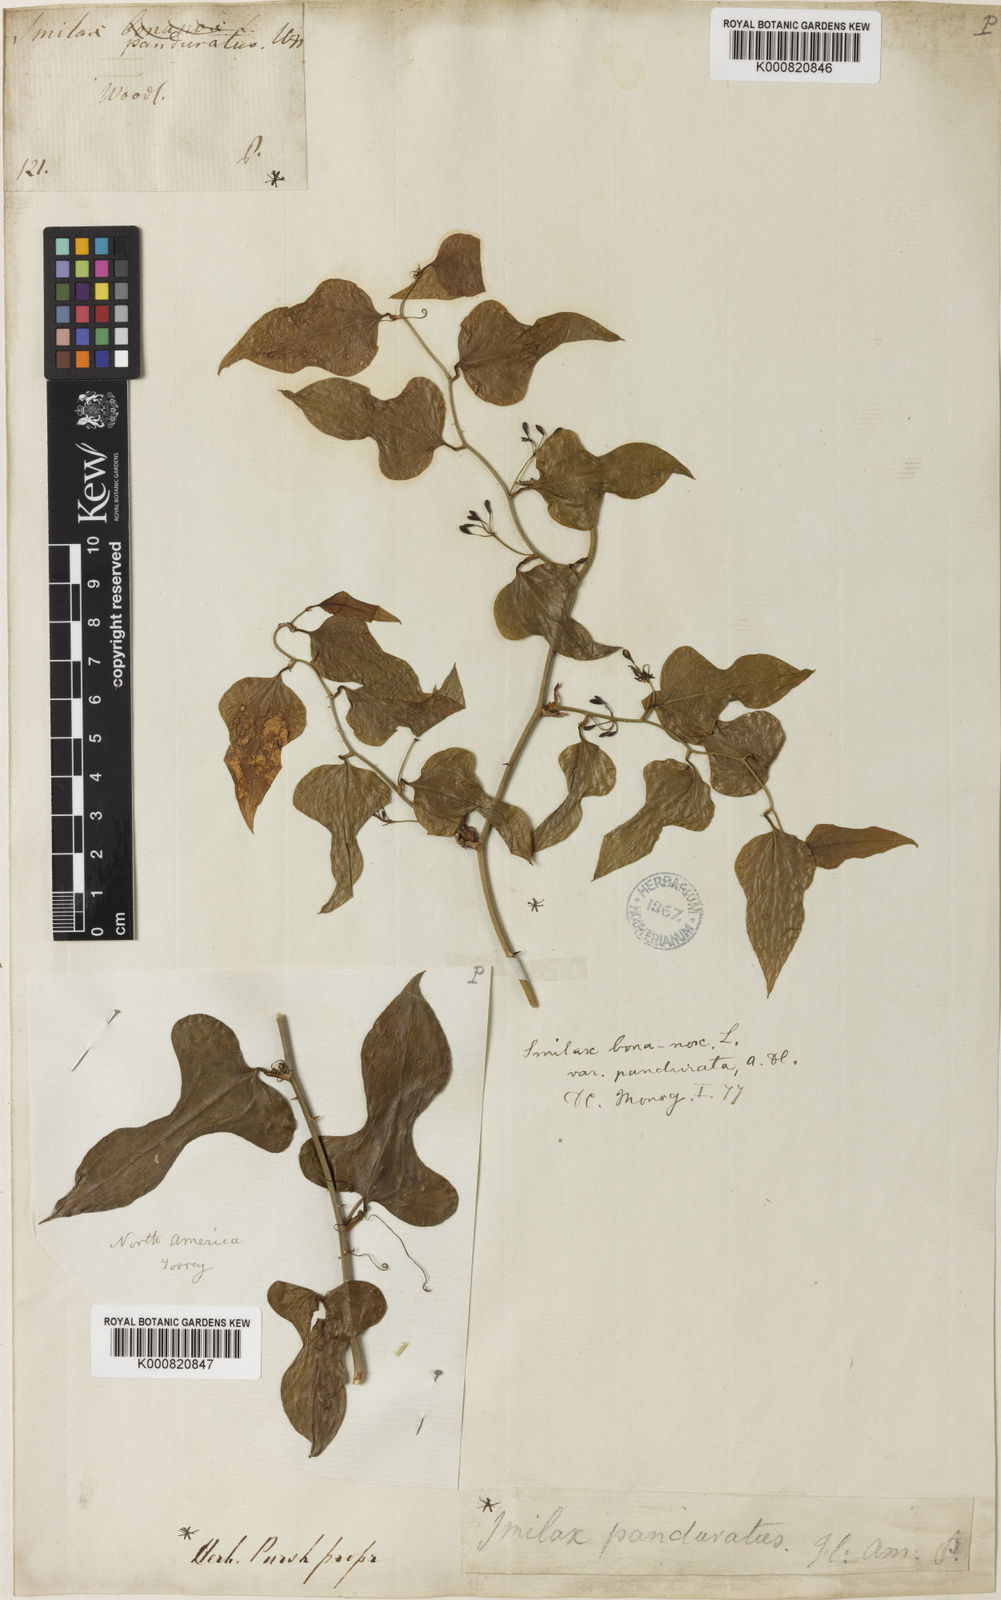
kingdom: Plantae
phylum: Tracheophyta
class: Liliopsida
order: Liliales
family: Smilacaceae
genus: Smilax
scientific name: Smilax bona-nox
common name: Catbrier
